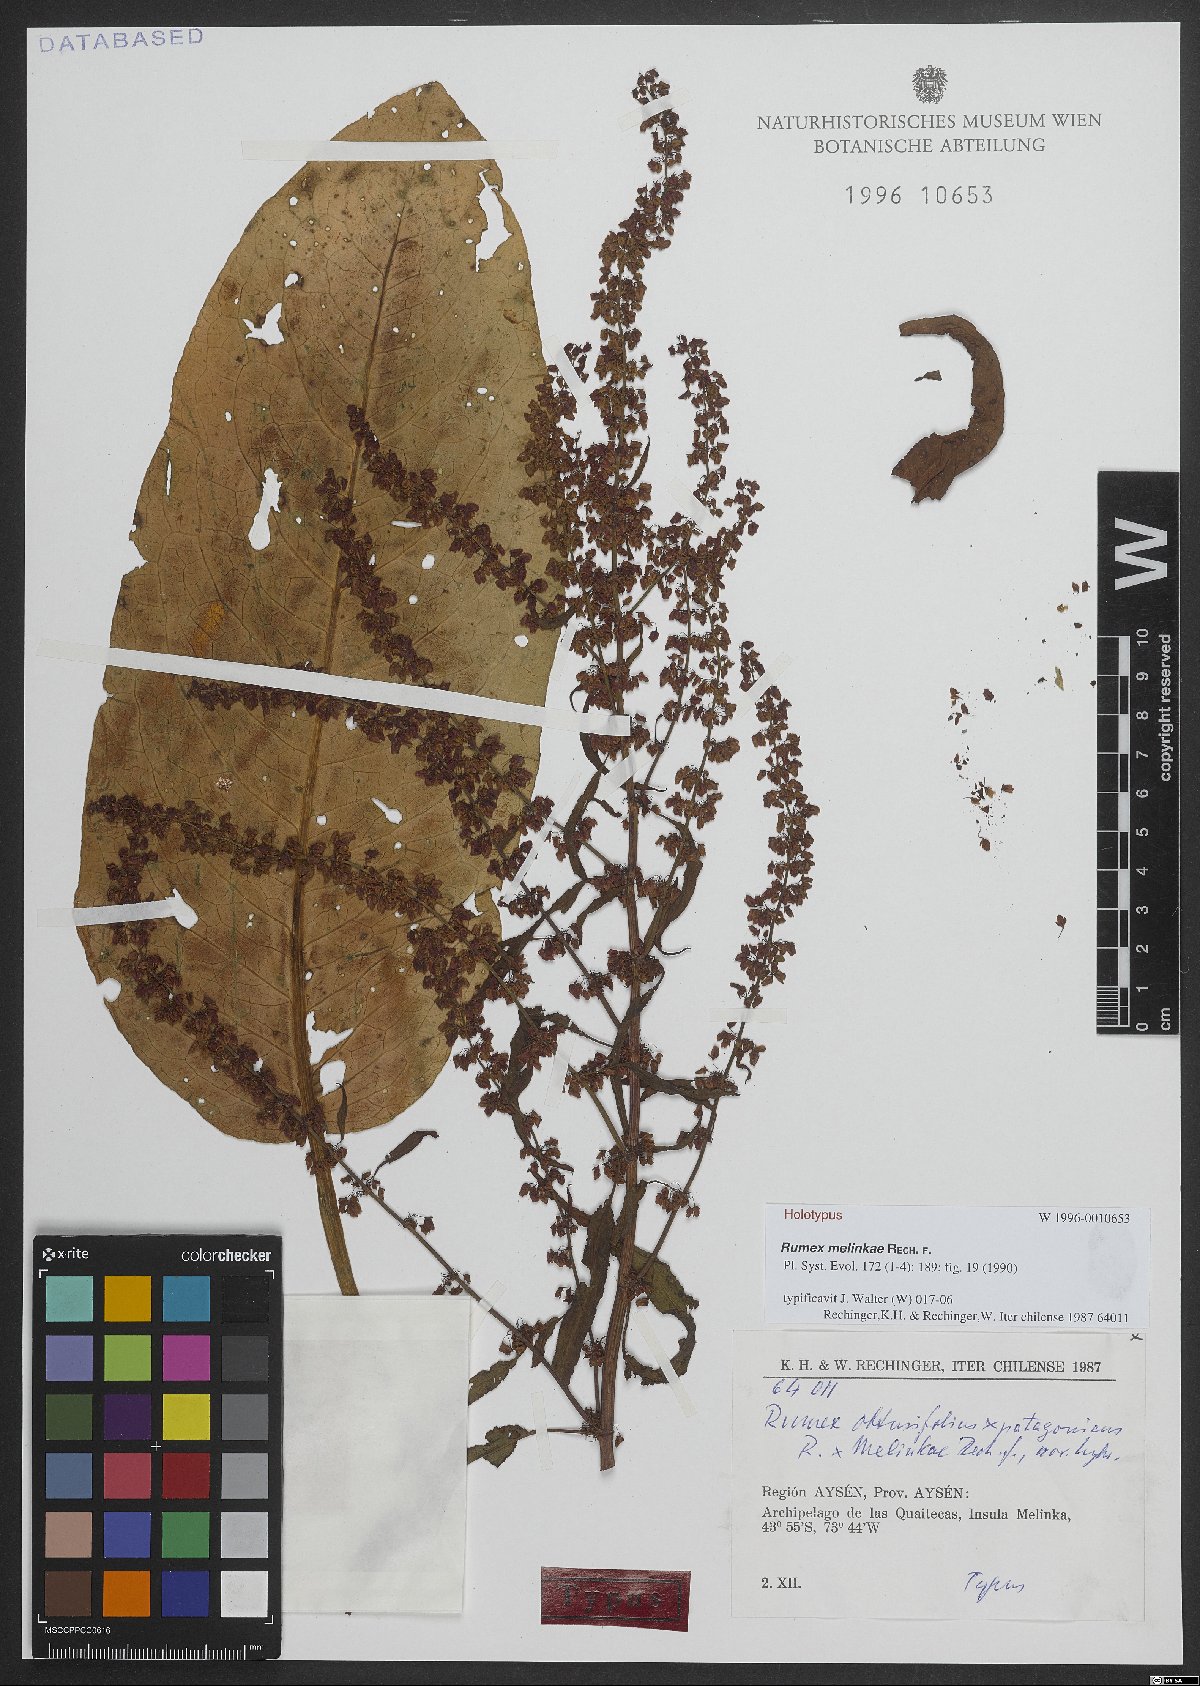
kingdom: Plantae
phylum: Tracheophyta
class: Magnoliopsida
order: Caryophyllales
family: Polygonaceae
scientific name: Polygonaceae
